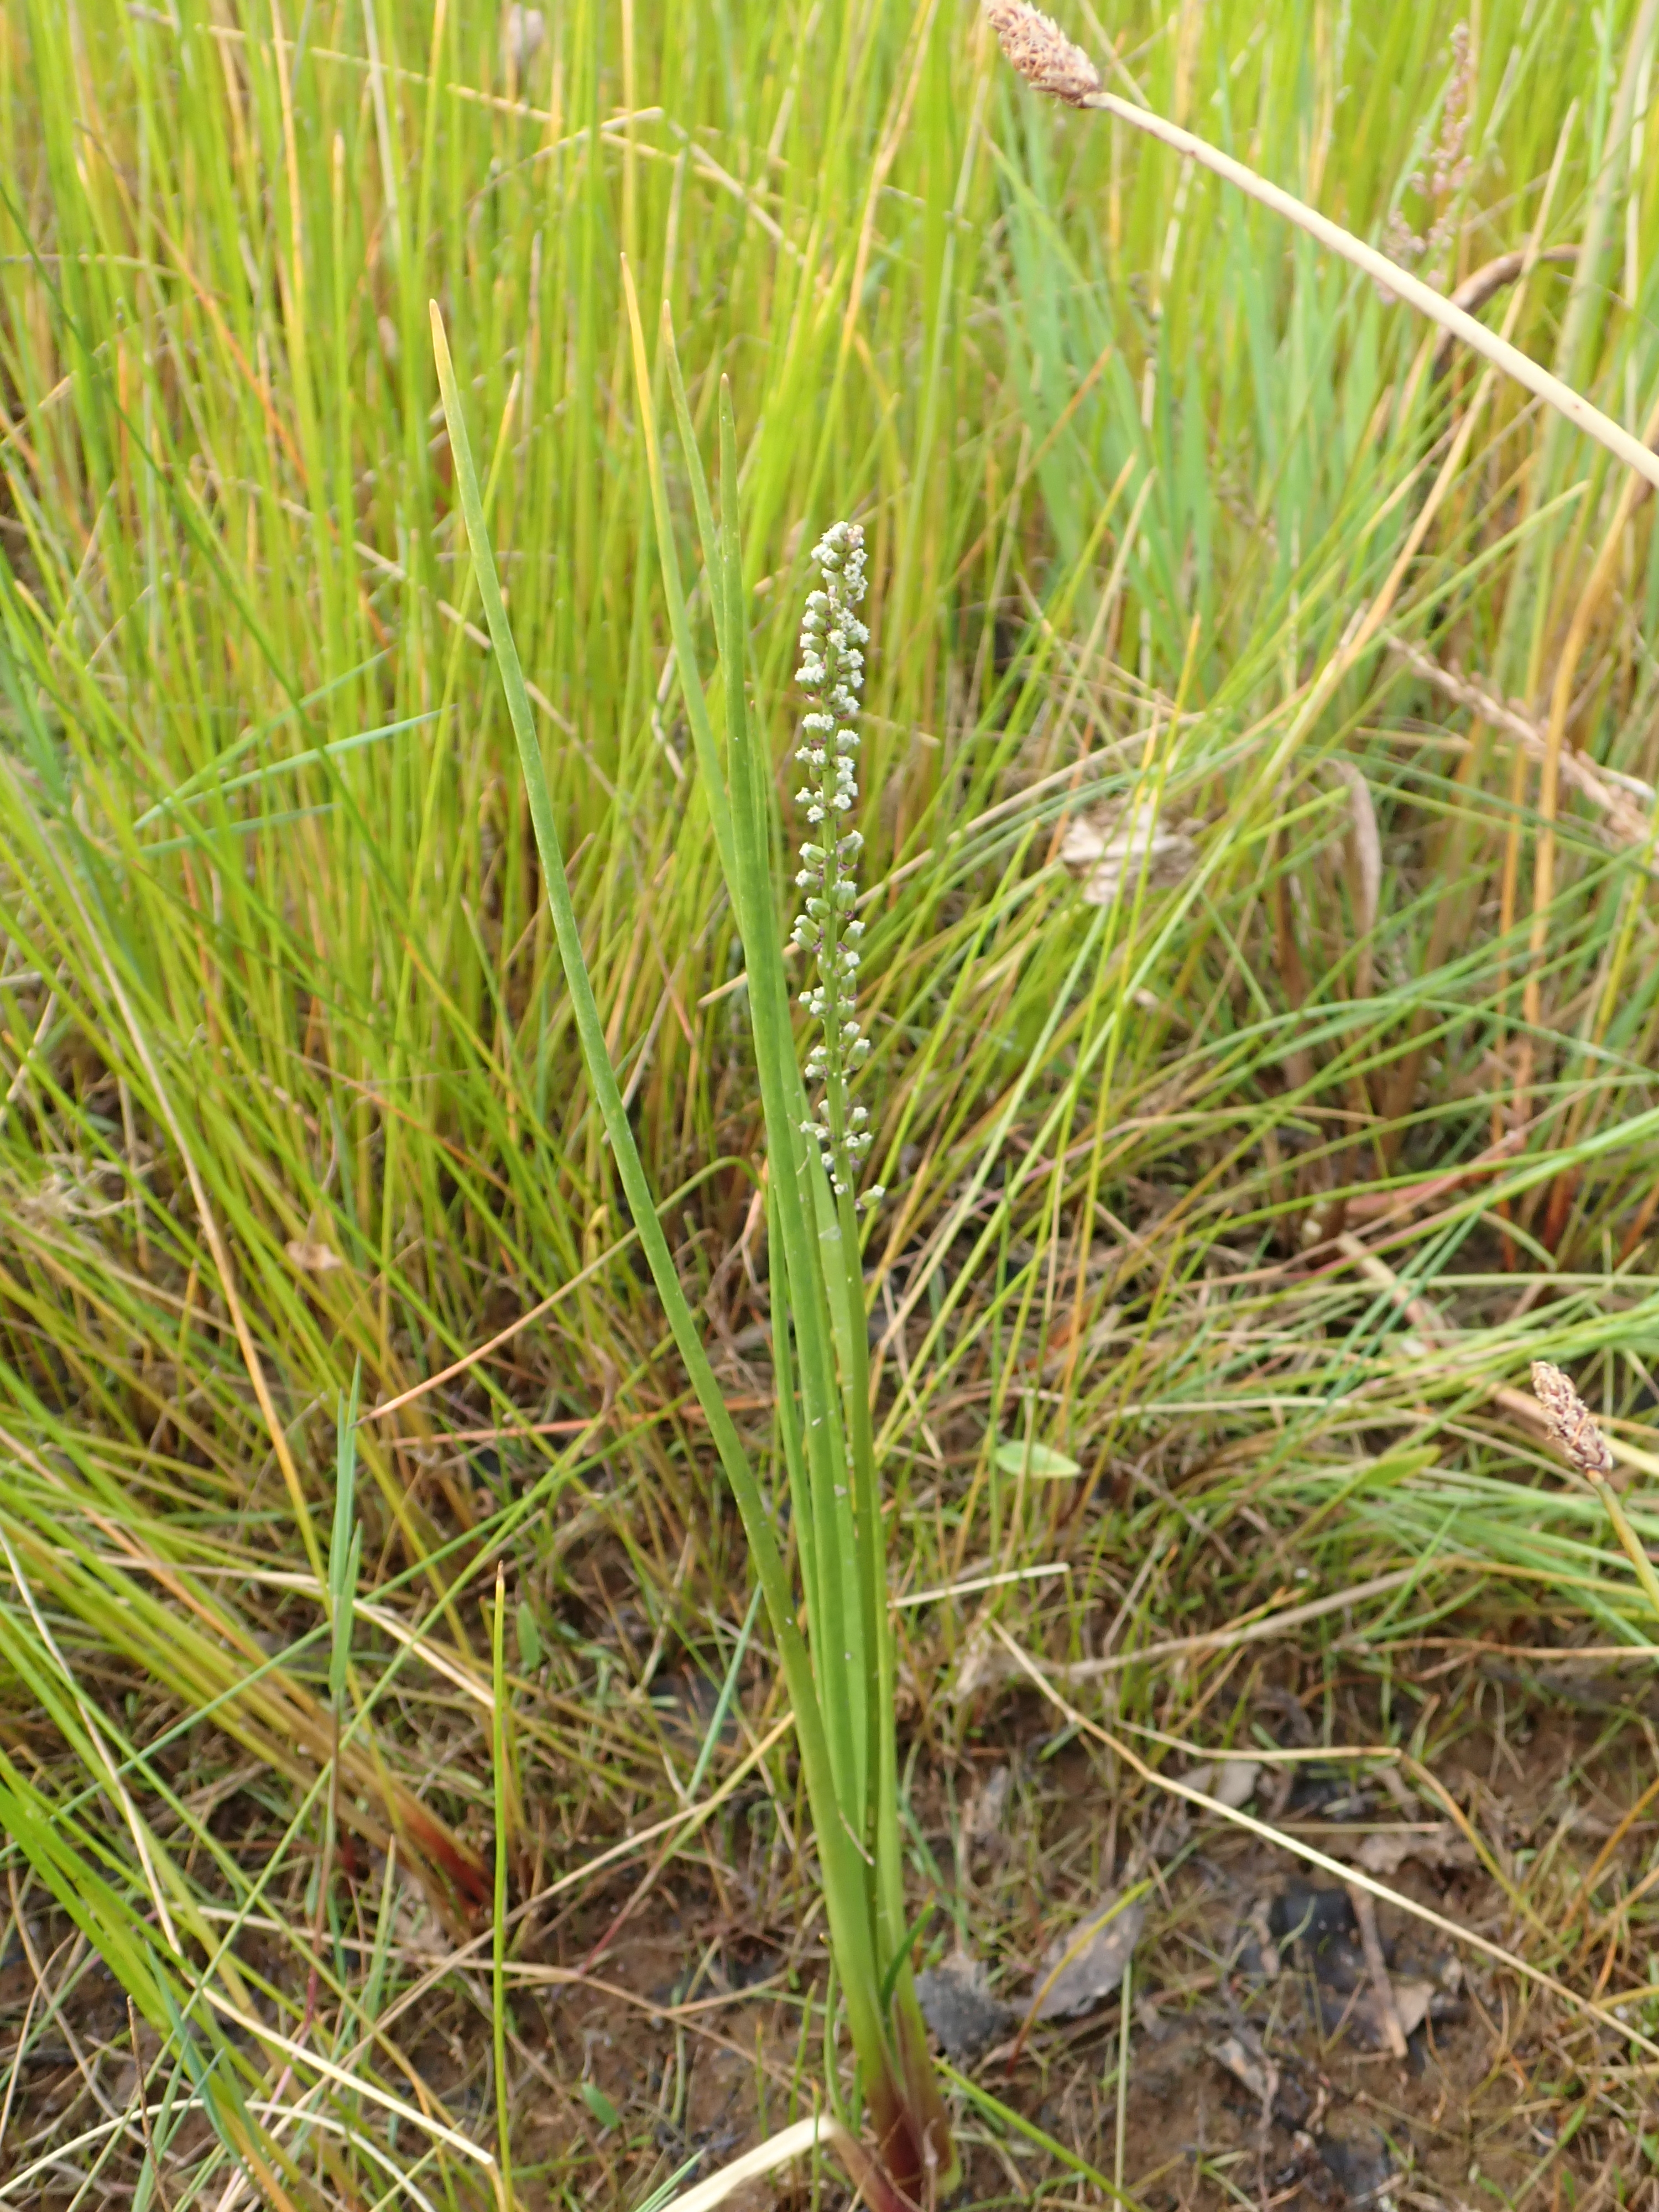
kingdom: Plantae
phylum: Tracheophyta
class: Liliopsida
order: Alismatales
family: Juncaginaceae
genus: Triglochin
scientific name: Triglochin maritima
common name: Sea arrowgrass
